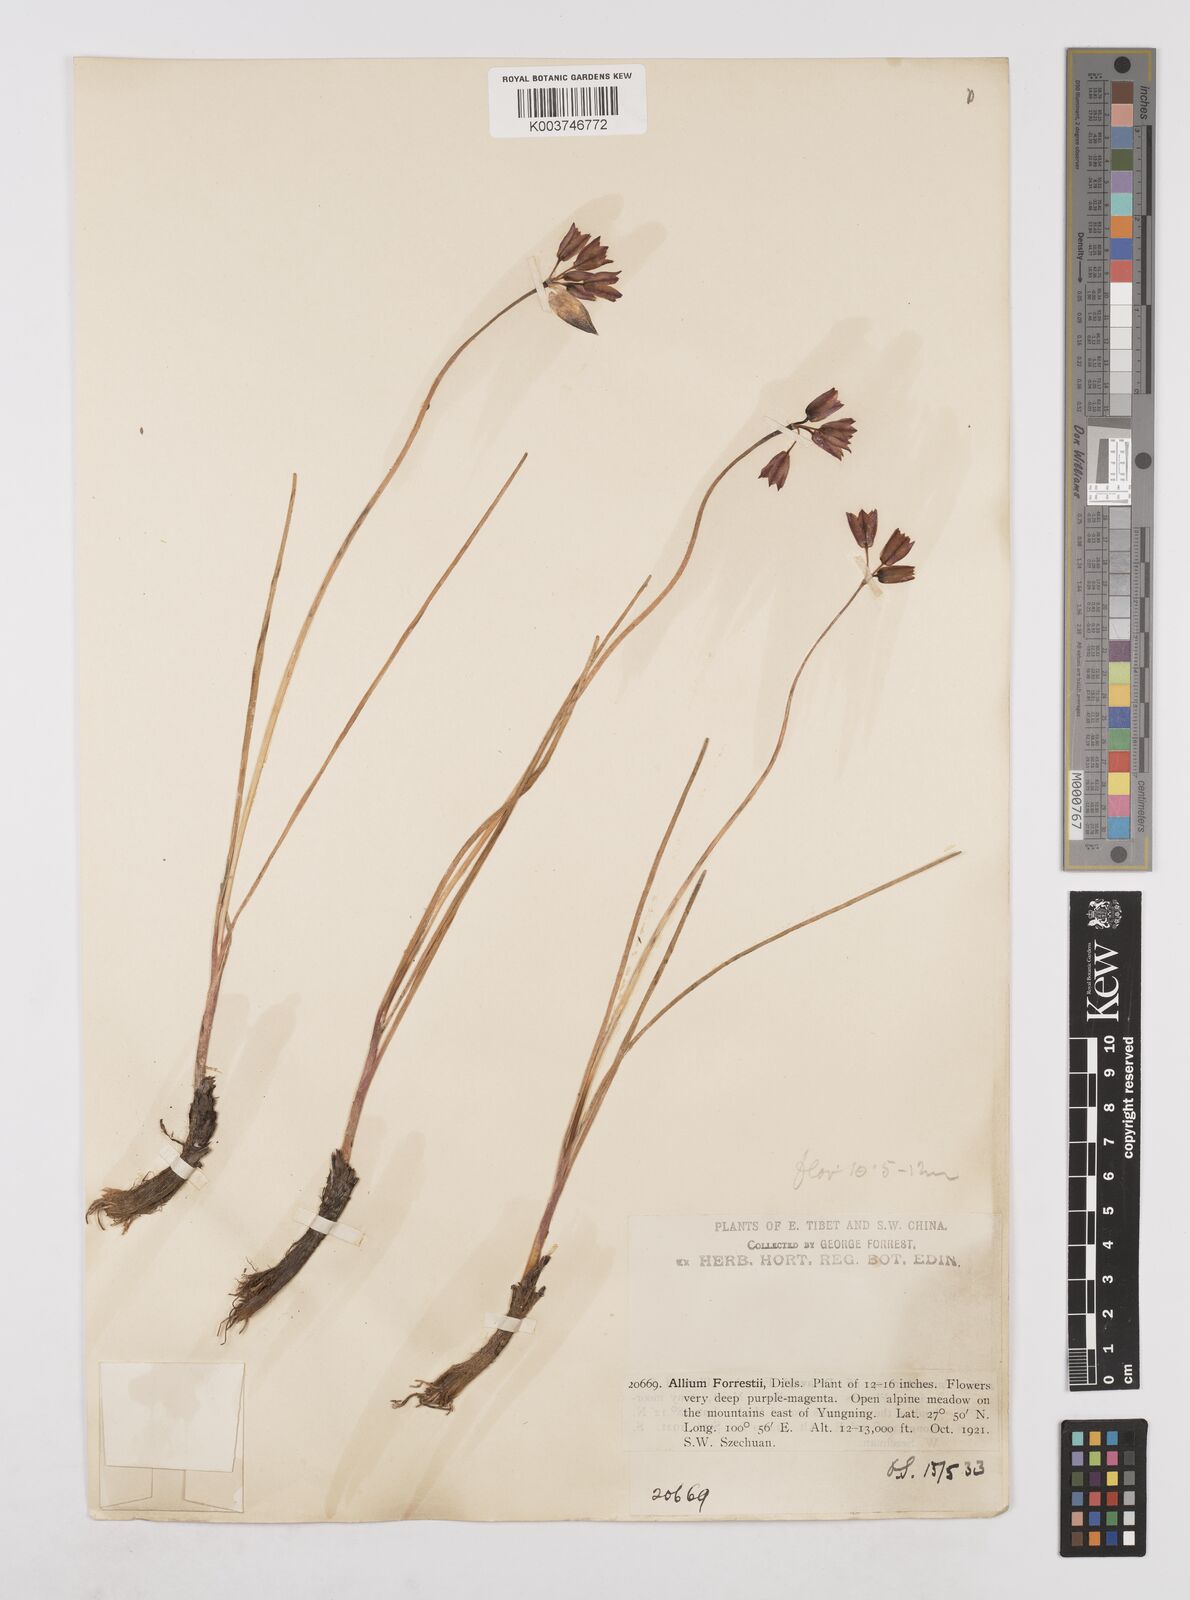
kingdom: Plantae
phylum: Tracheophyta
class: Liliopsida
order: Asparagales
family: Amaryllidaceae
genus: Allium
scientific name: Allium forrestii
